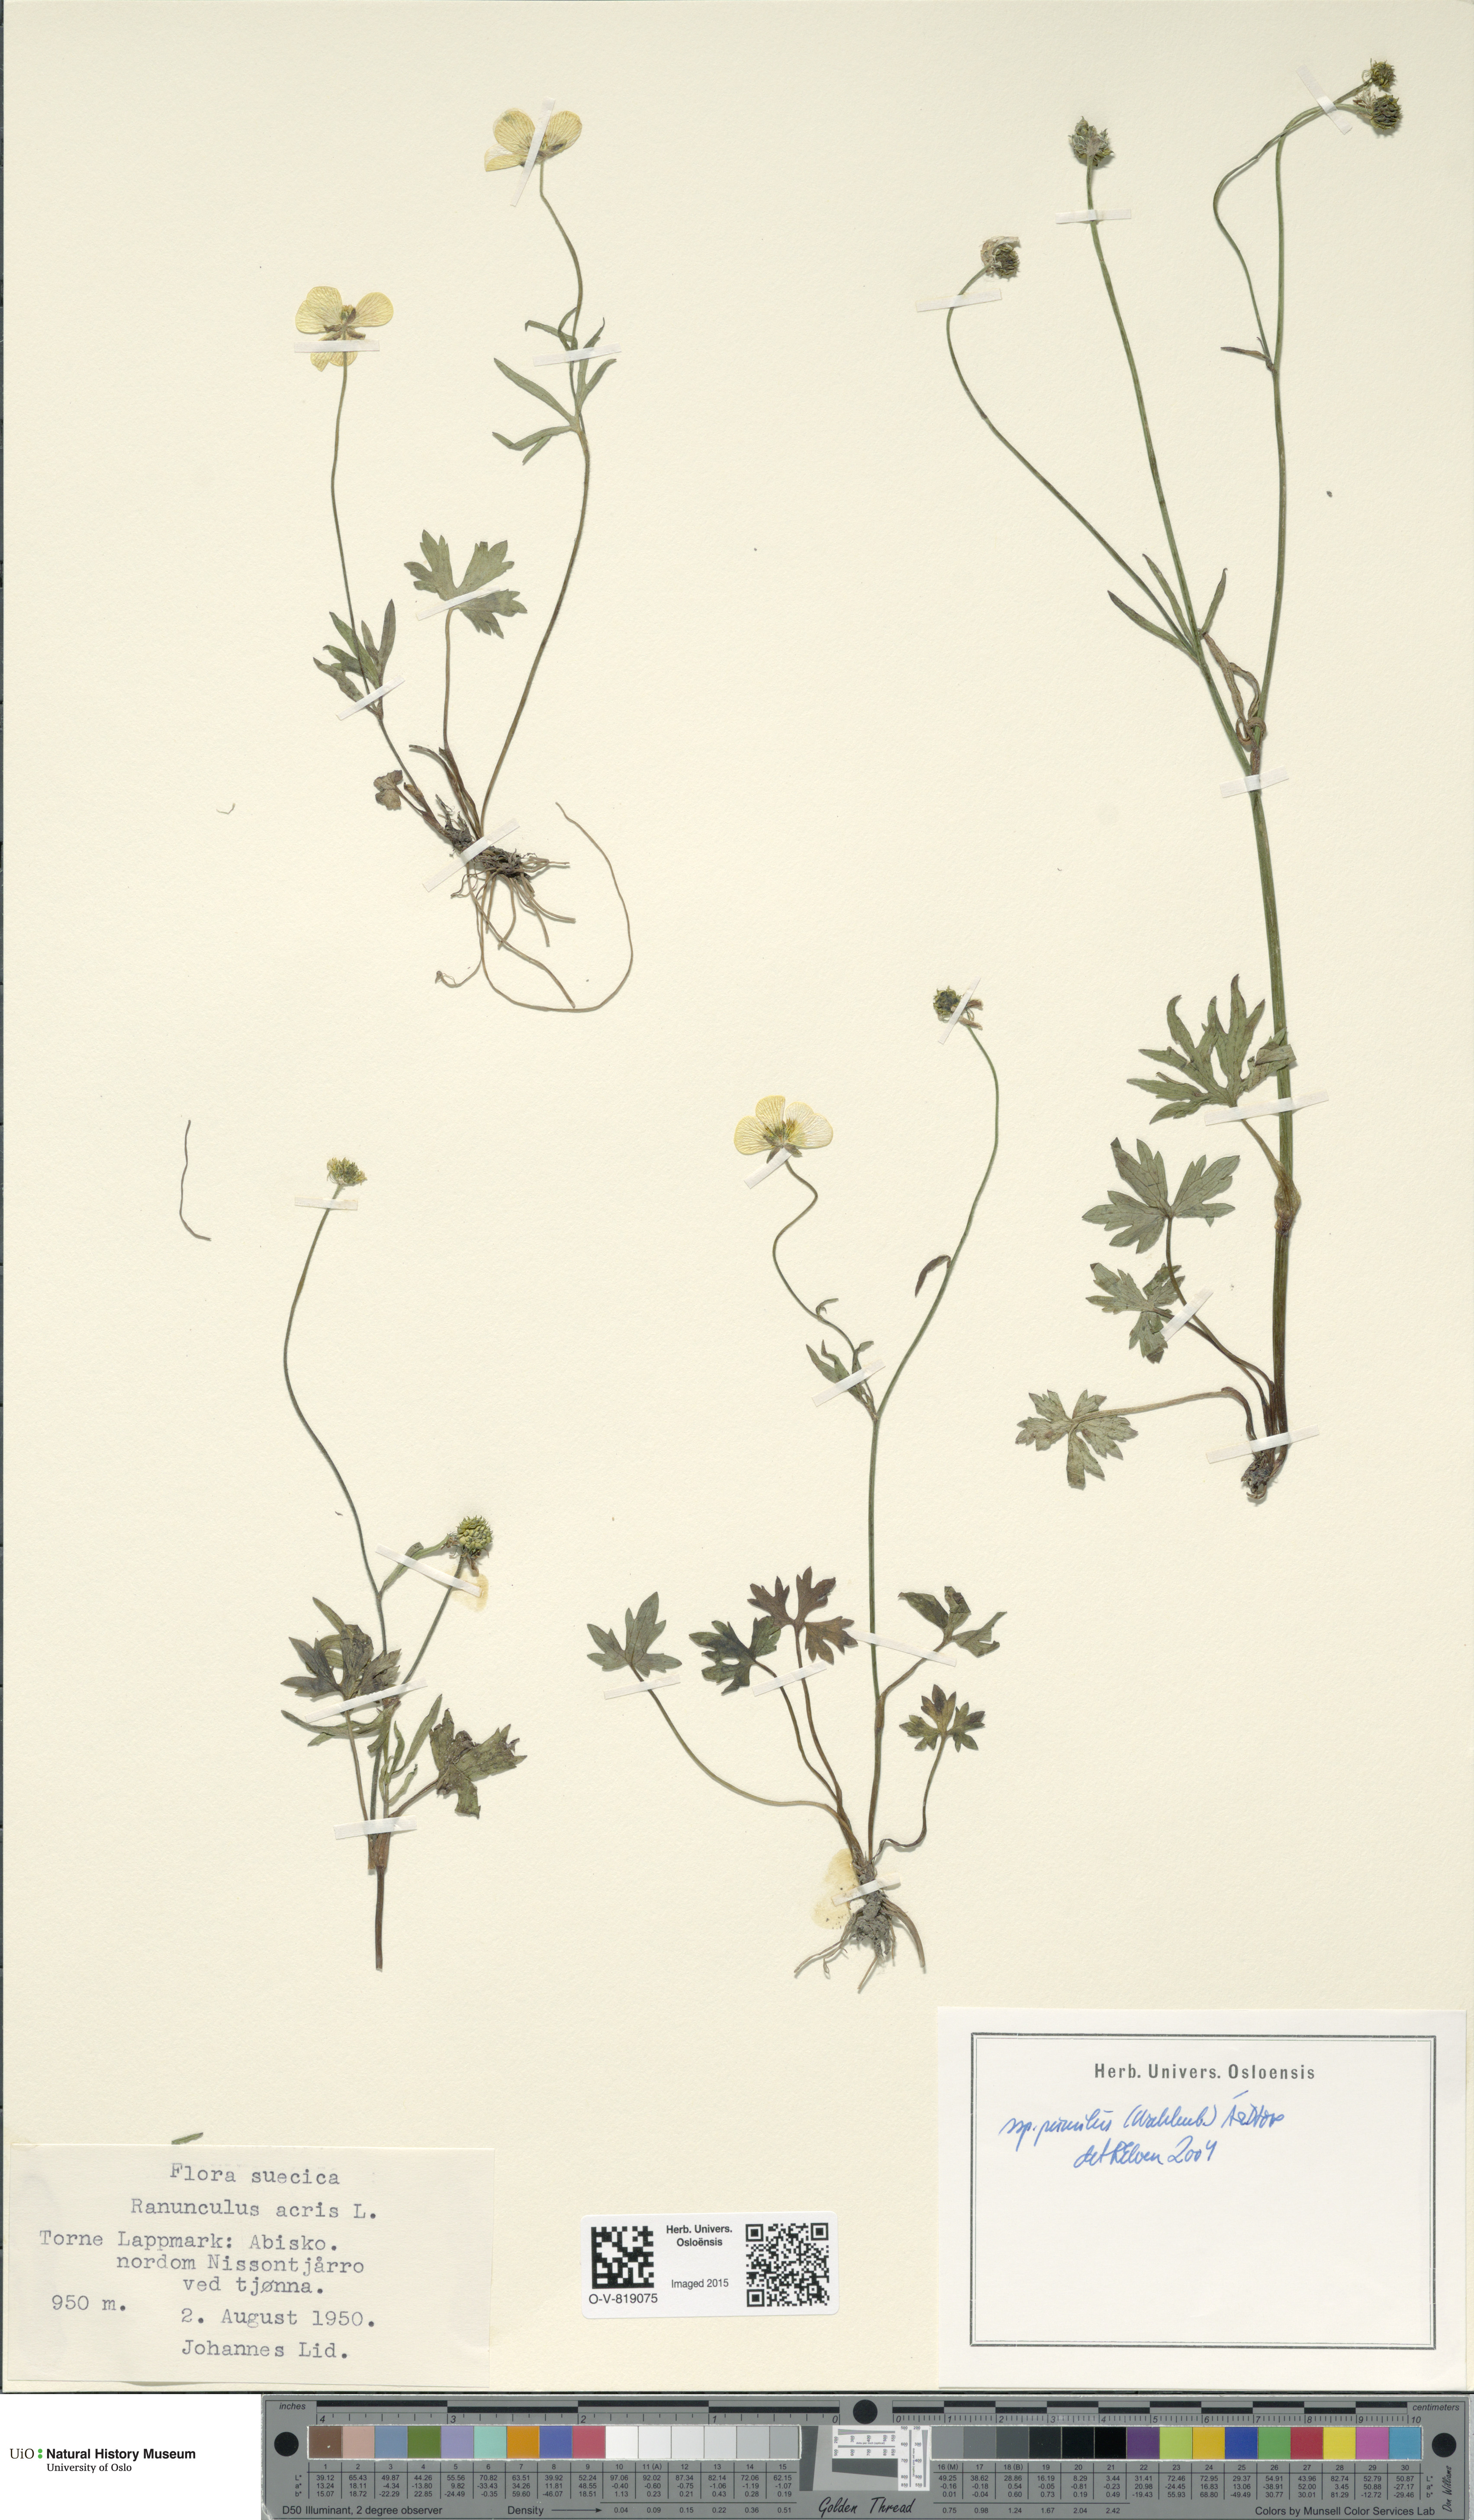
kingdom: Plantae
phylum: Tracheophyta
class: Magnoliopsida
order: Ranunculales
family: Ranunculaceae
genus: Ranunculus
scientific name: Ranunculus
